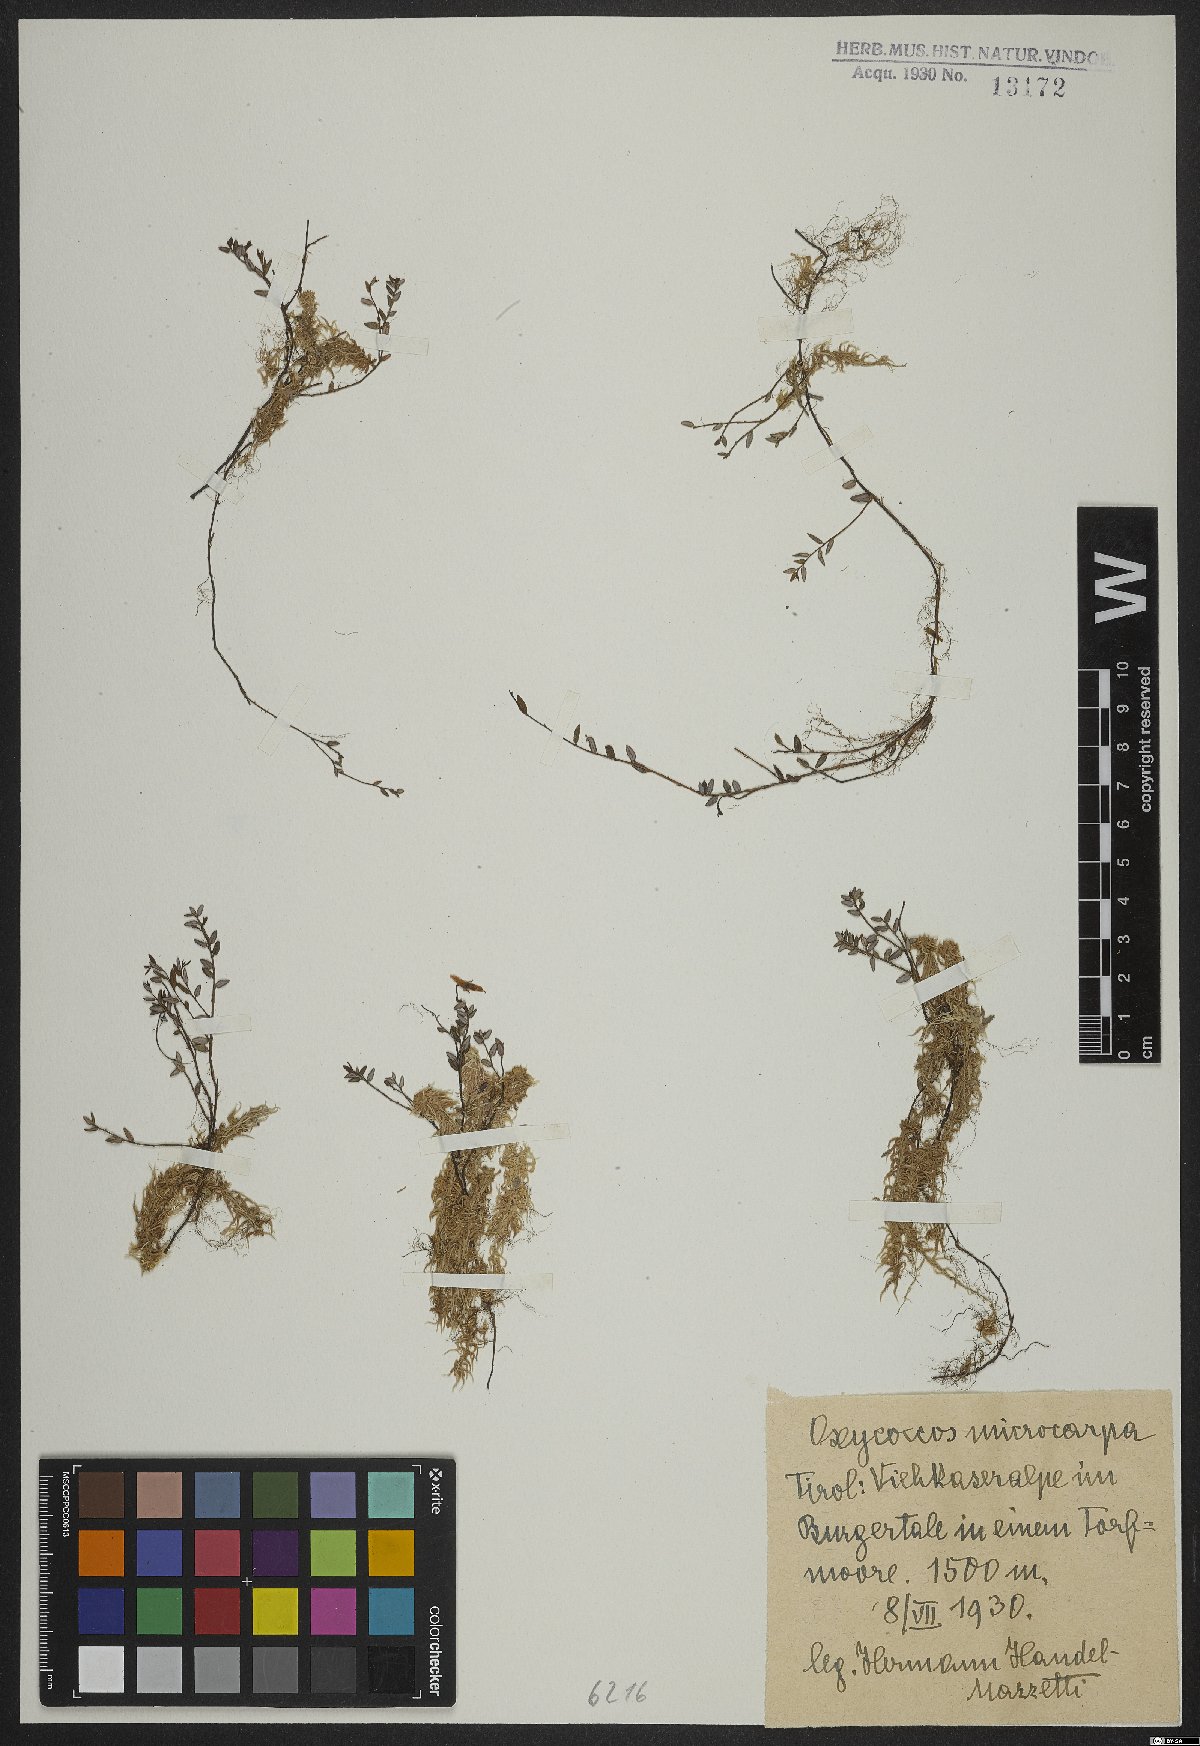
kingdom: Plantae
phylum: Tracheophyta
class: Magnoliopsida
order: Ericales
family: Ericaceae
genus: Vaccinium
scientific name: Vaccinium microcarpum
